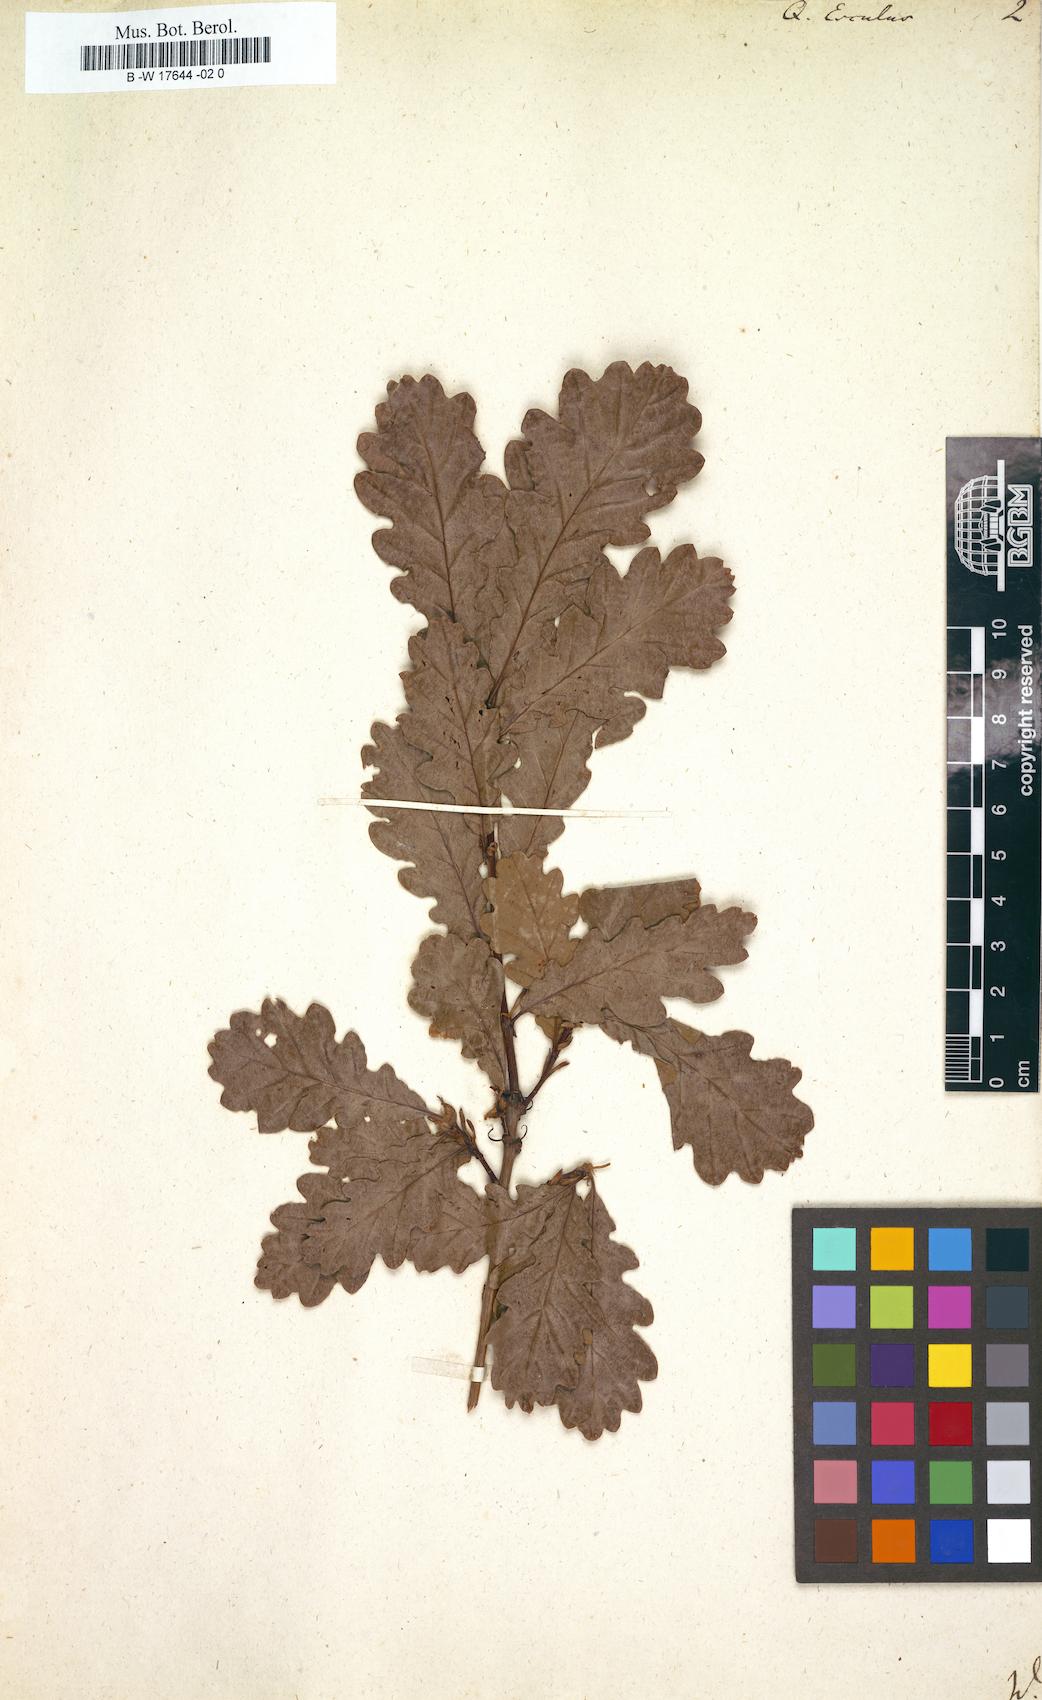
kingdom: Plantae
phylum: Tracheophyta
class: Magnoliopsida
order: Fagales
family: Fagaceae
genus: Quercus
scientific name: Quercus conferta
